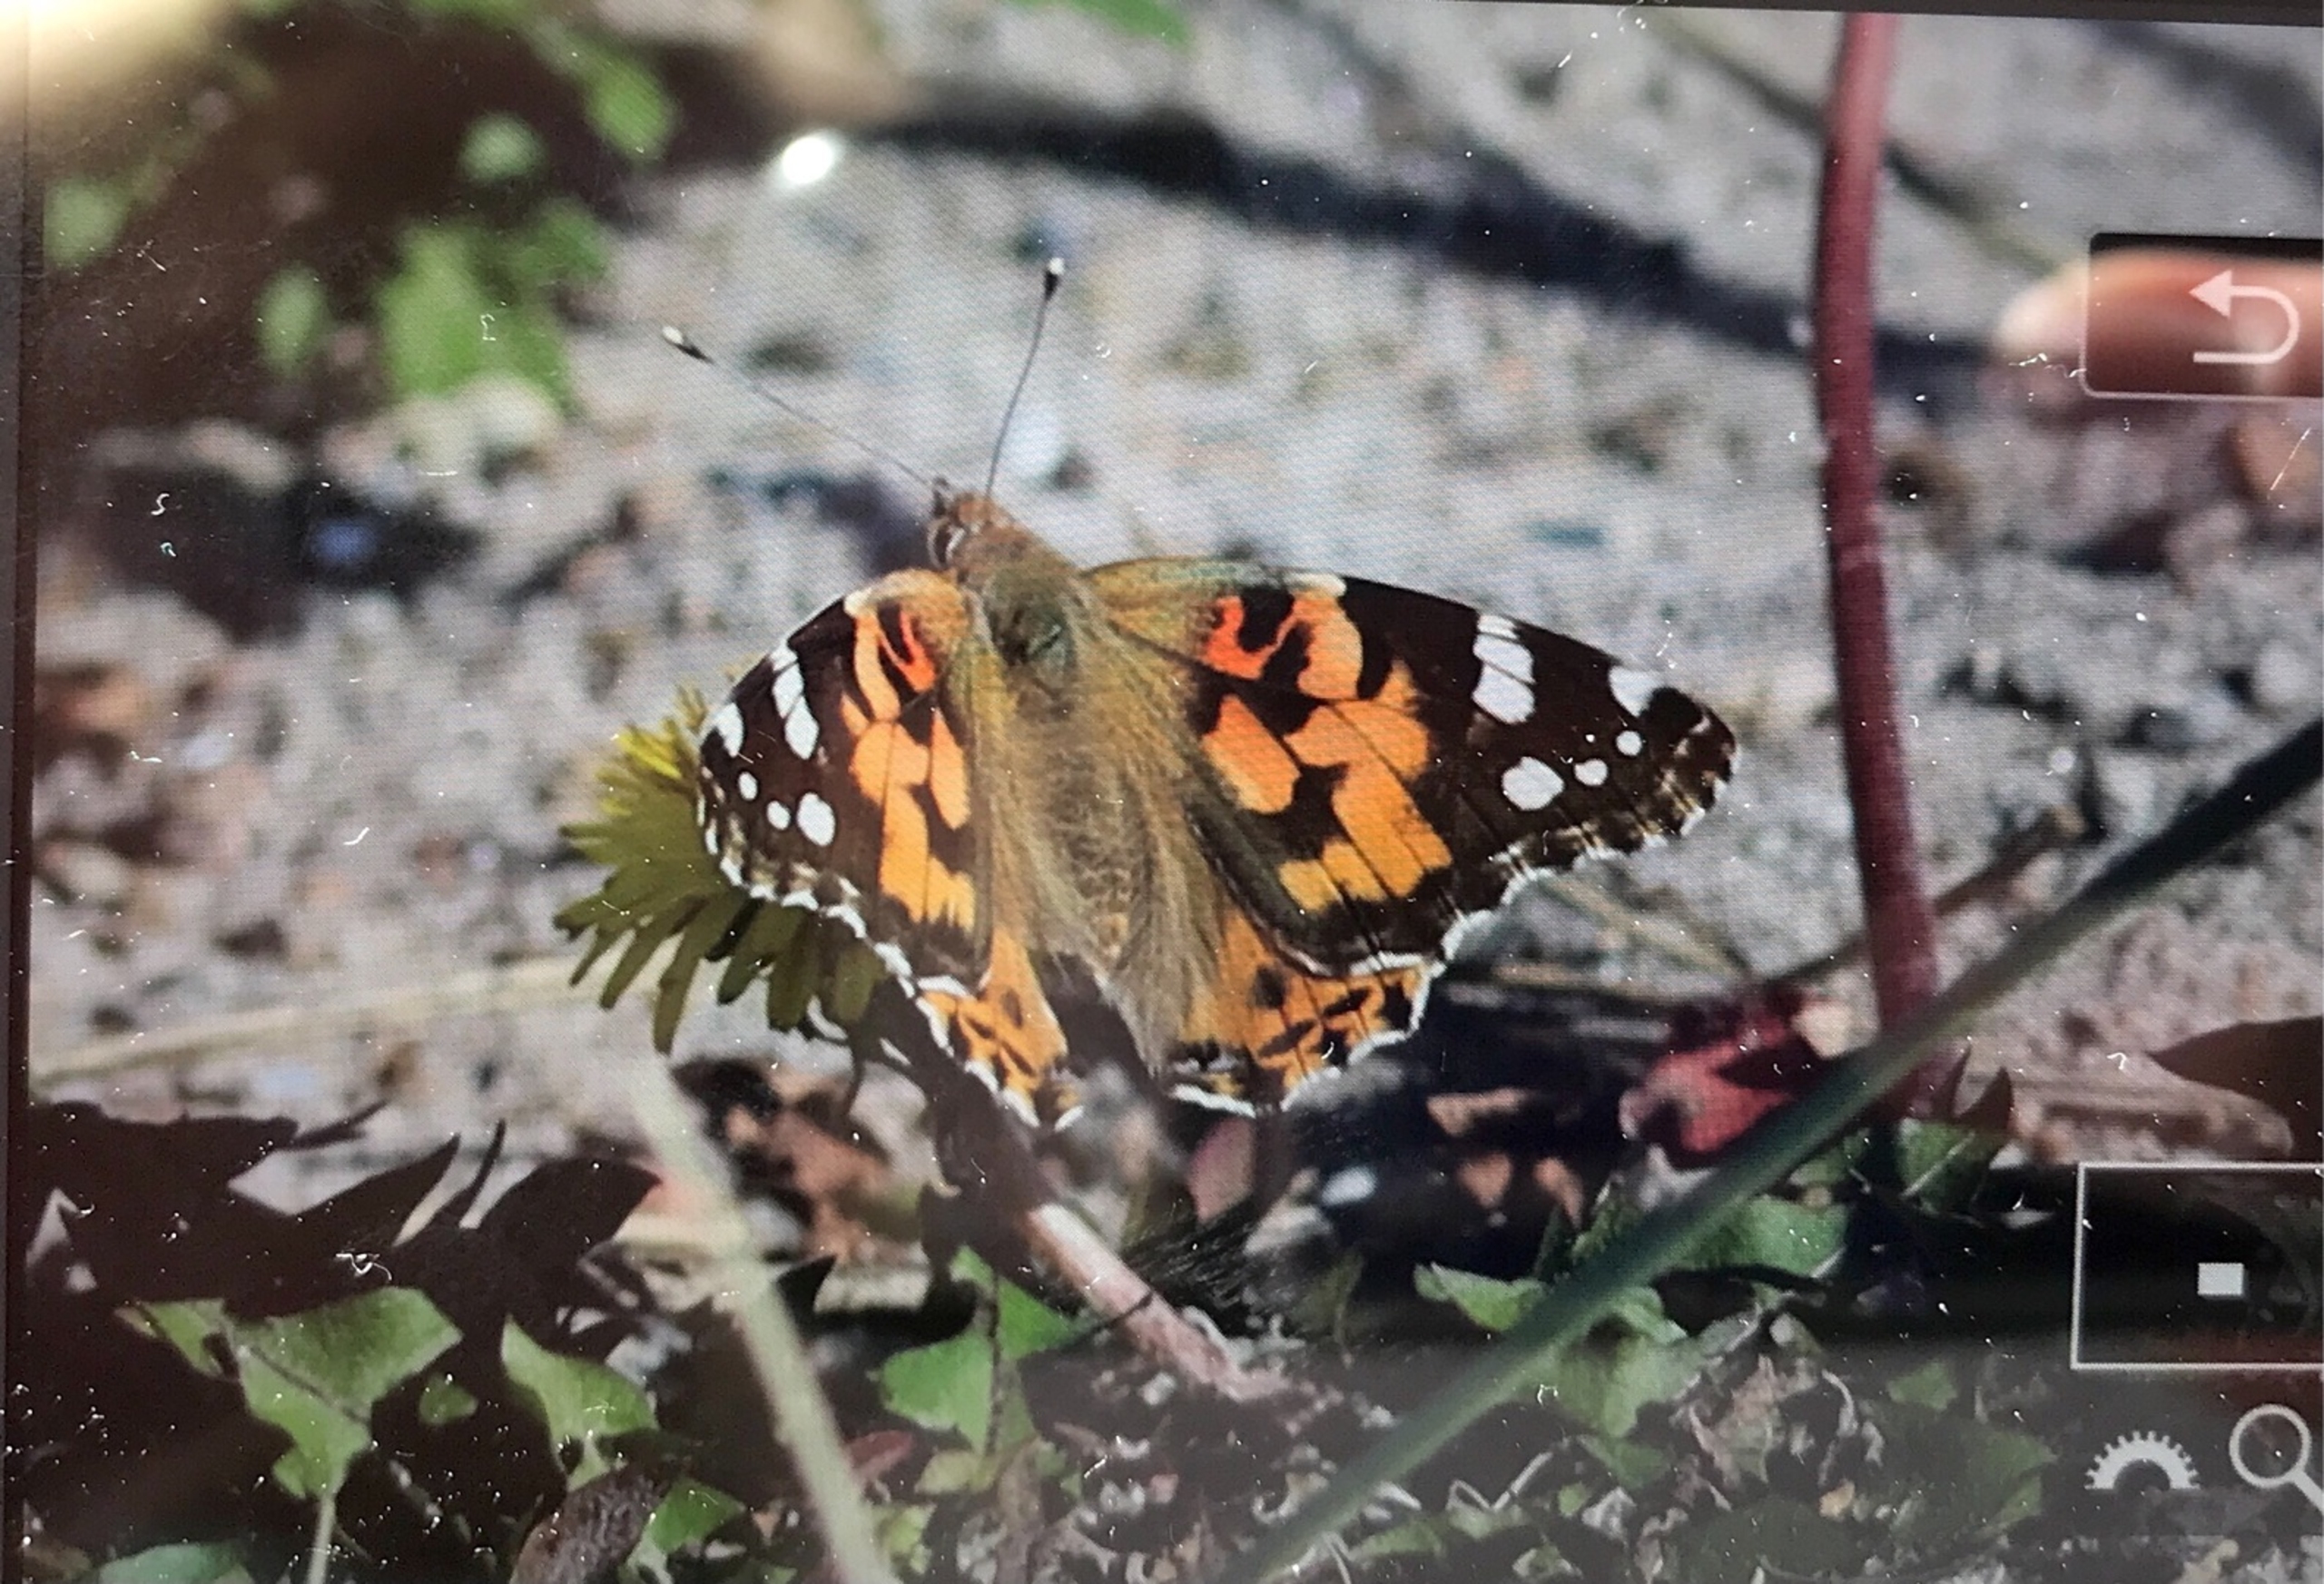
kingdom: Animalia
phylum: Arthropoda
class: Insecta
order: Lepidoptera
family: Nymphalidae
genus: Vanessa
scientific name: Vanessa cardui
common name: Tidselsommerfugl
